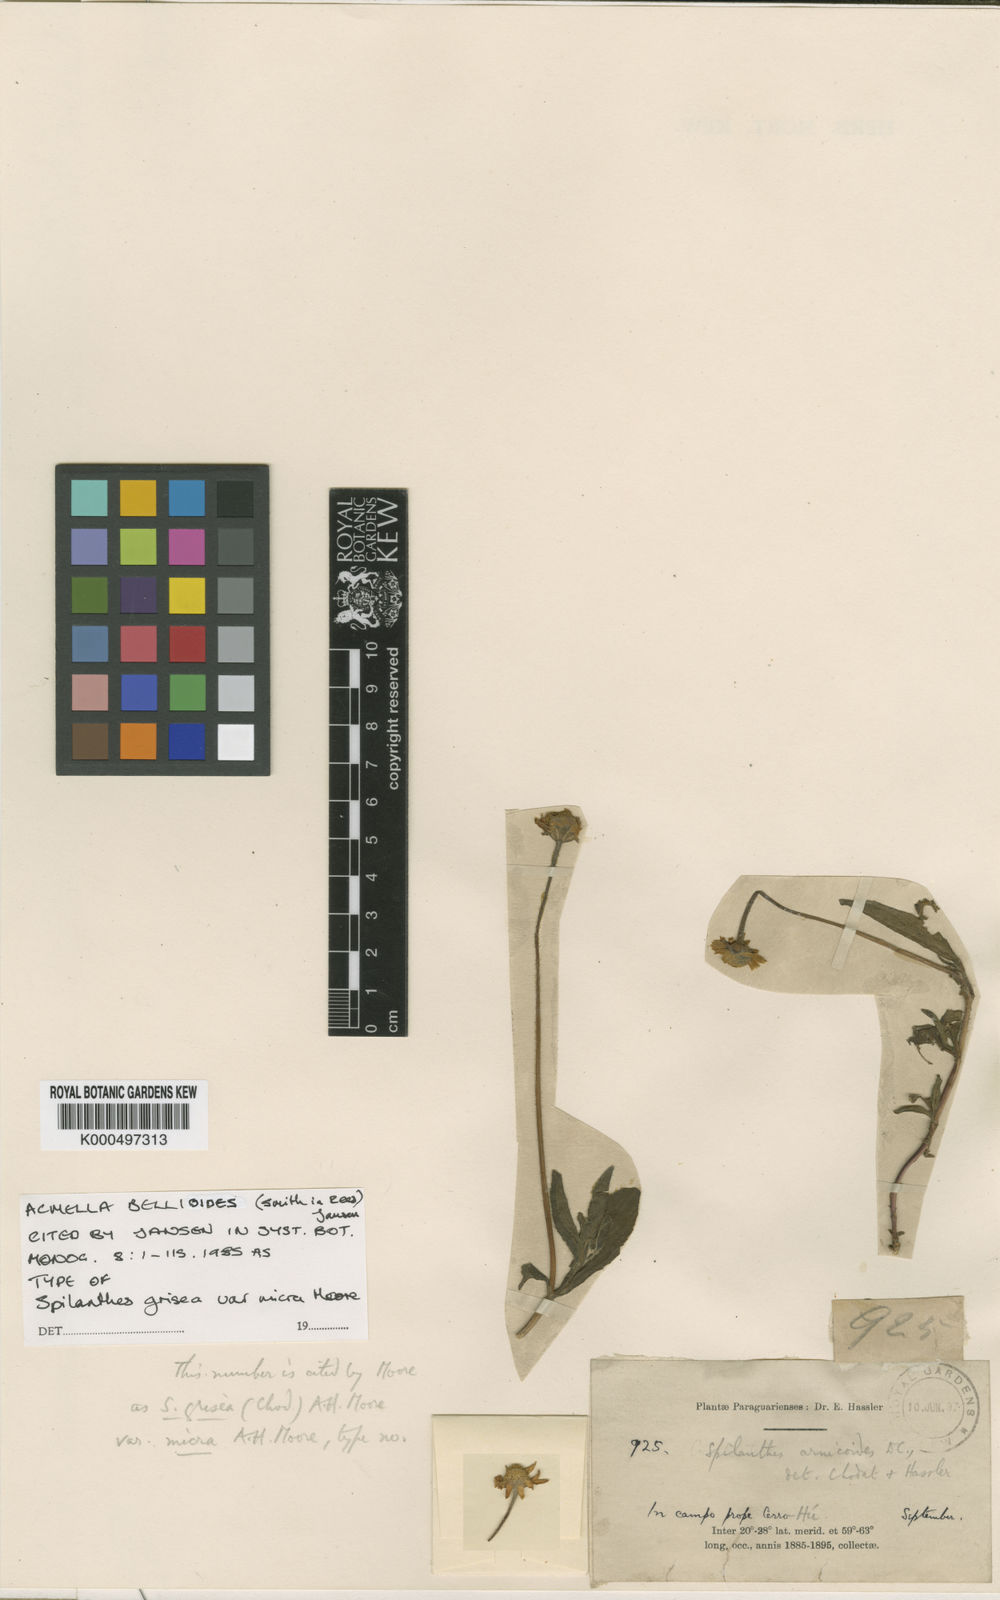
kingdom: Plantae
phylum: Tracheophyta
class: Magnoliopsida
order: Asterales
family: Asteraceae
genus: Acmella
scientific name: Acmella bellidioides
